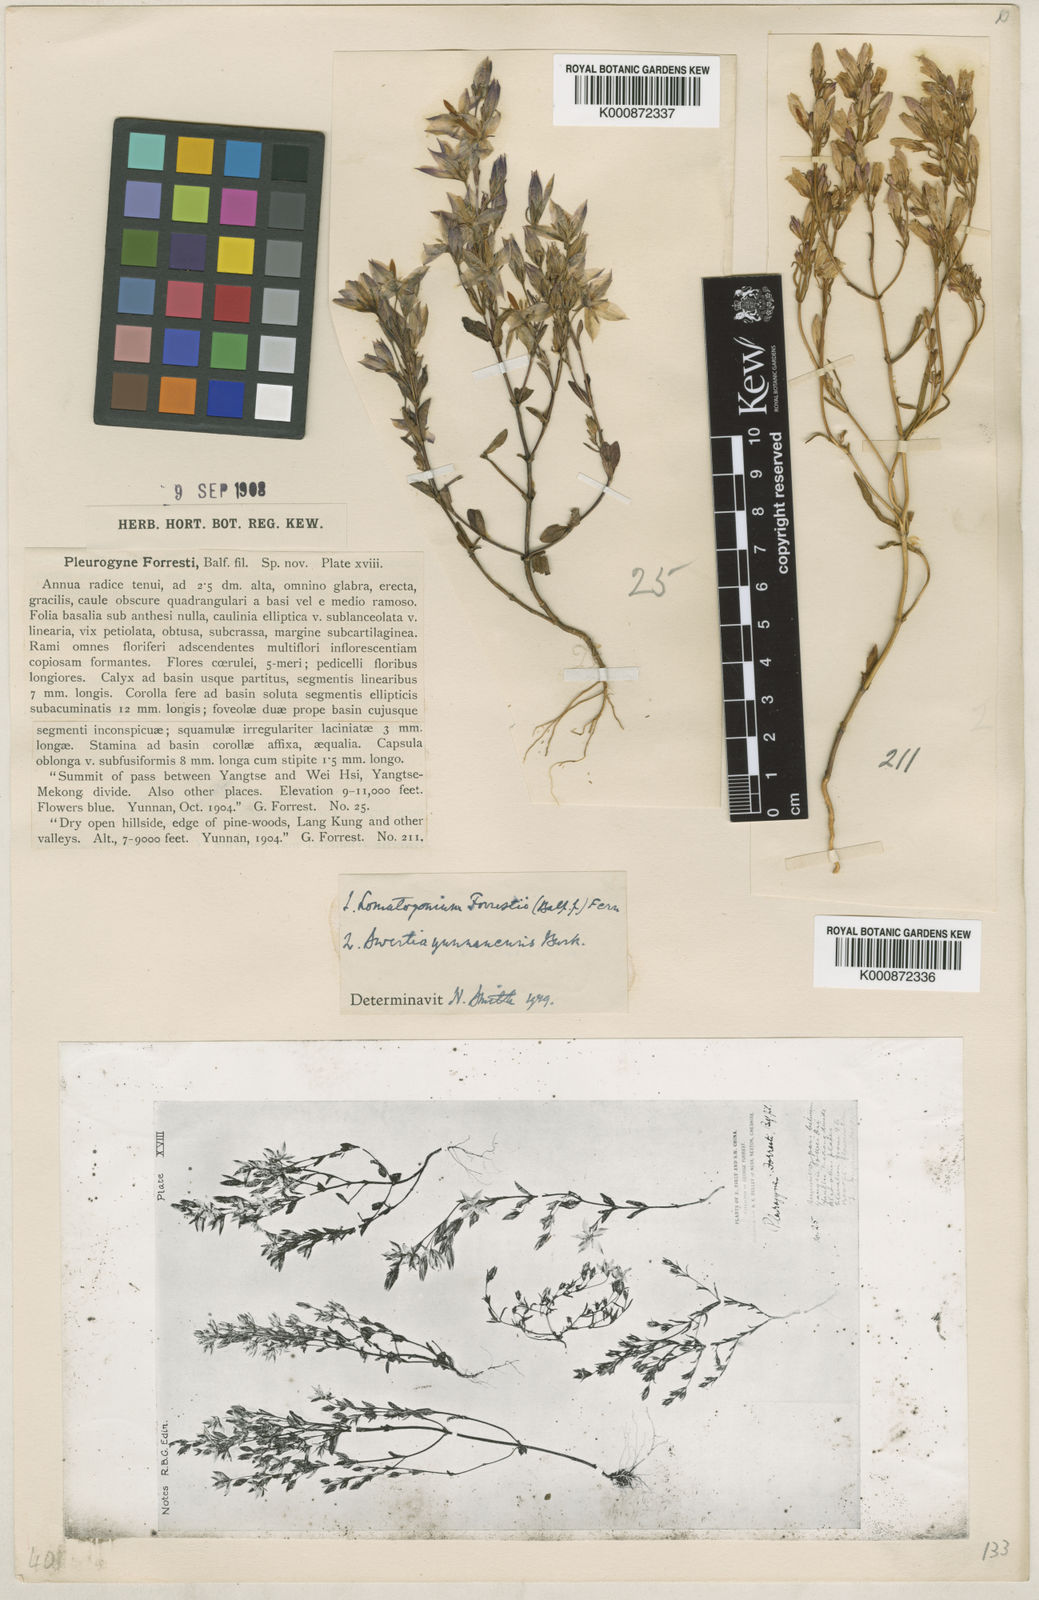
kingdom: Plantae
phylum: Tracheophyta
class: Magnoliopsida
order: Gentianales
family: Gentianaceae
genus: Lomatogonium
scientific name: Lomatogonium forrestii
